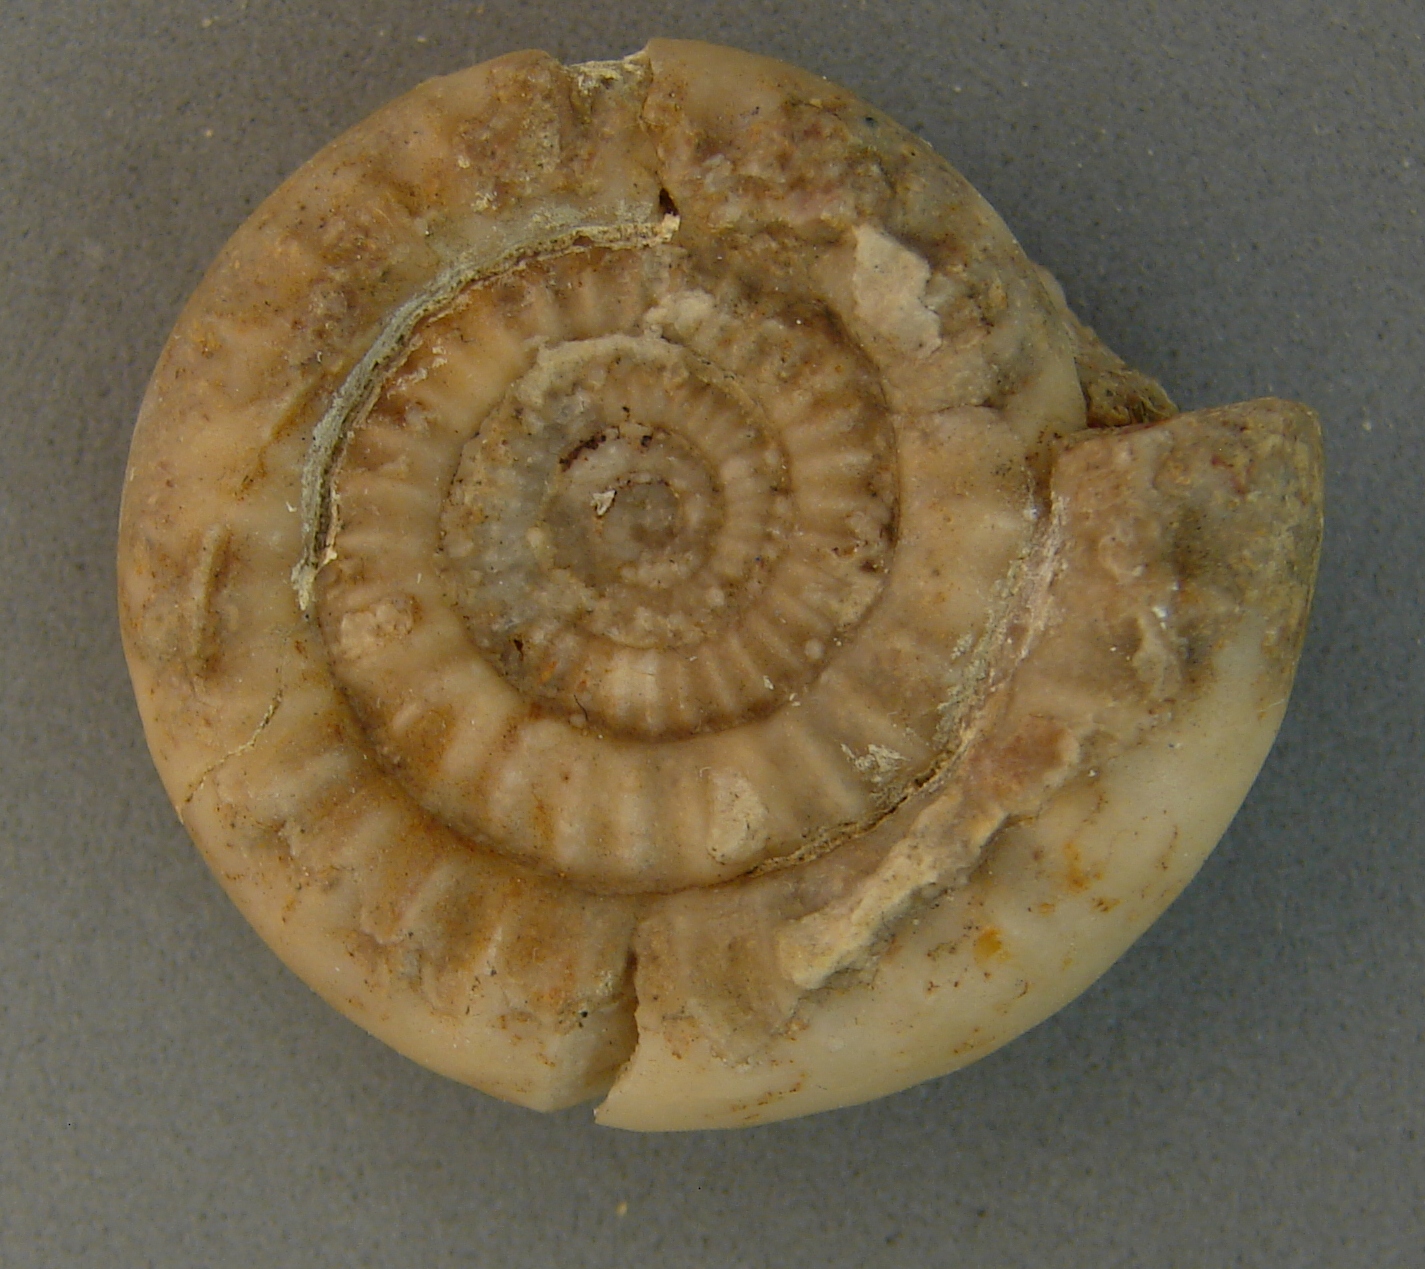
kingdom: Animalia
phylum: Mollusca
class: Cephalopoda
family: Psiloceratidae
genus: Caloceras
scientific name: Caloceras pirondi
